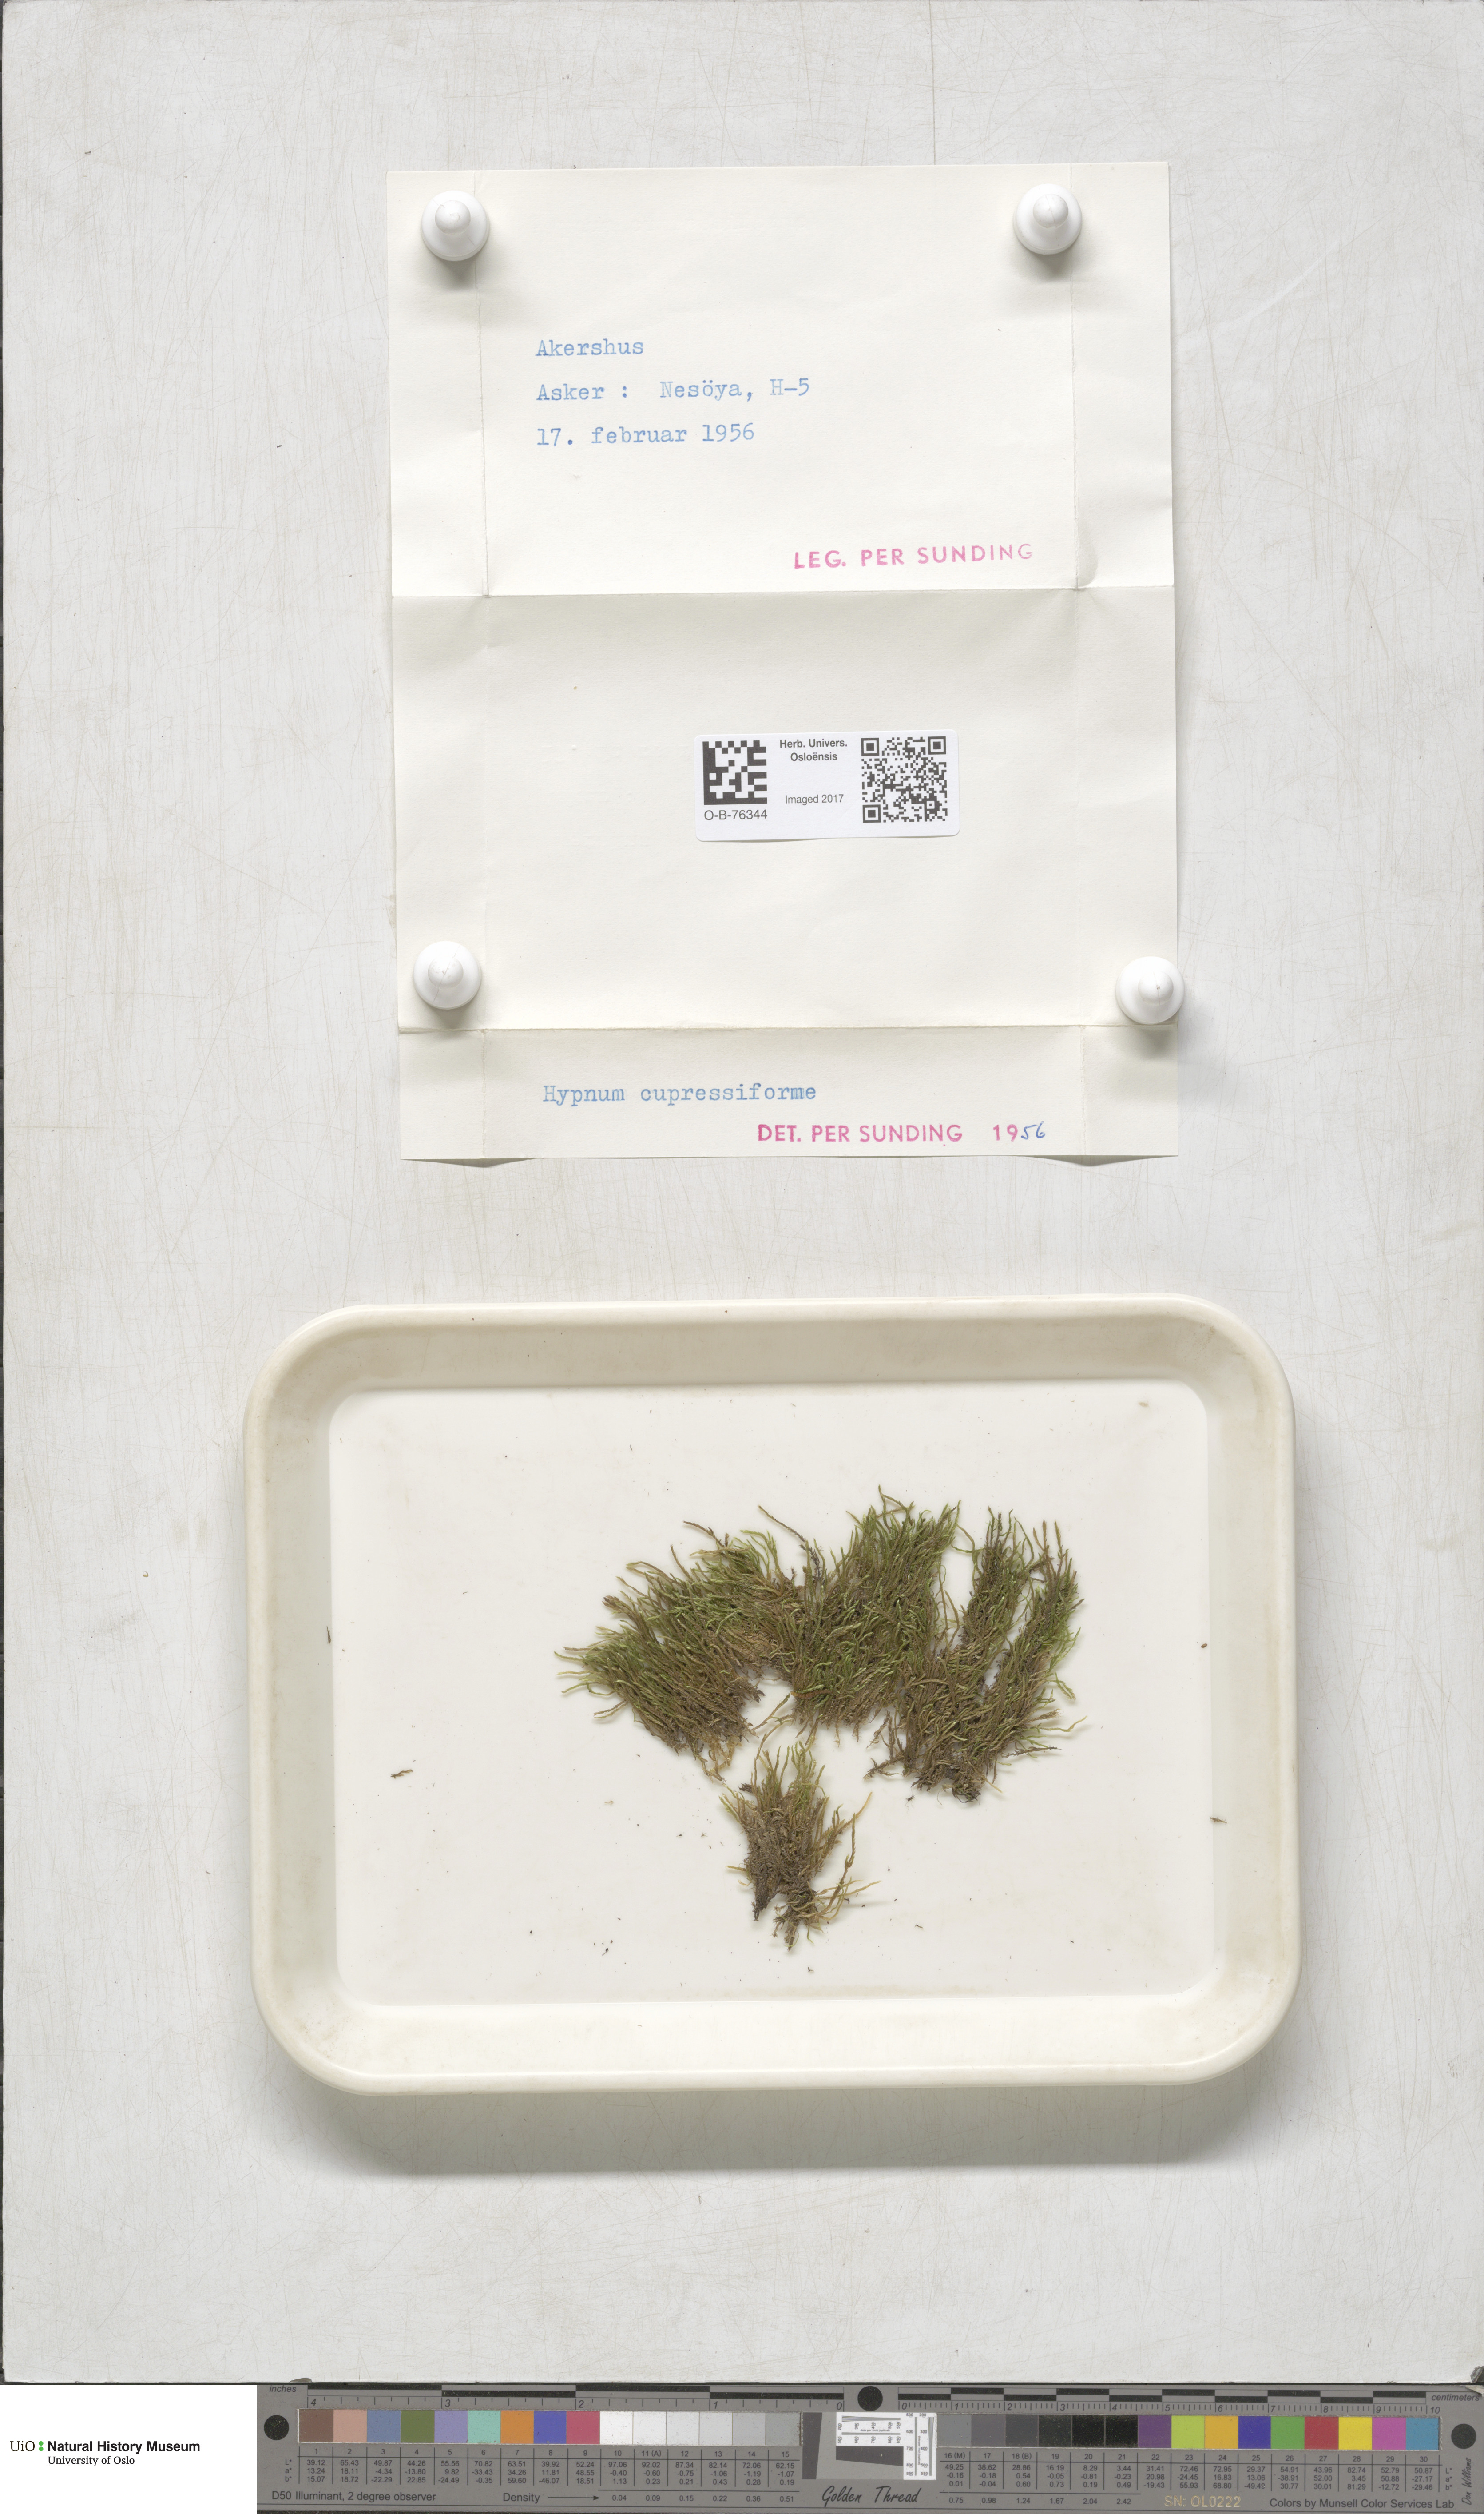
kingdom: Plantae
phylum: Bryophyta
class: Bryopsida
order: Hypnales
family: Hypnaceae
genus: Hypnum
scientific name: Hypnum cupressiforme
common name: Cypress-leaved plait-moss
